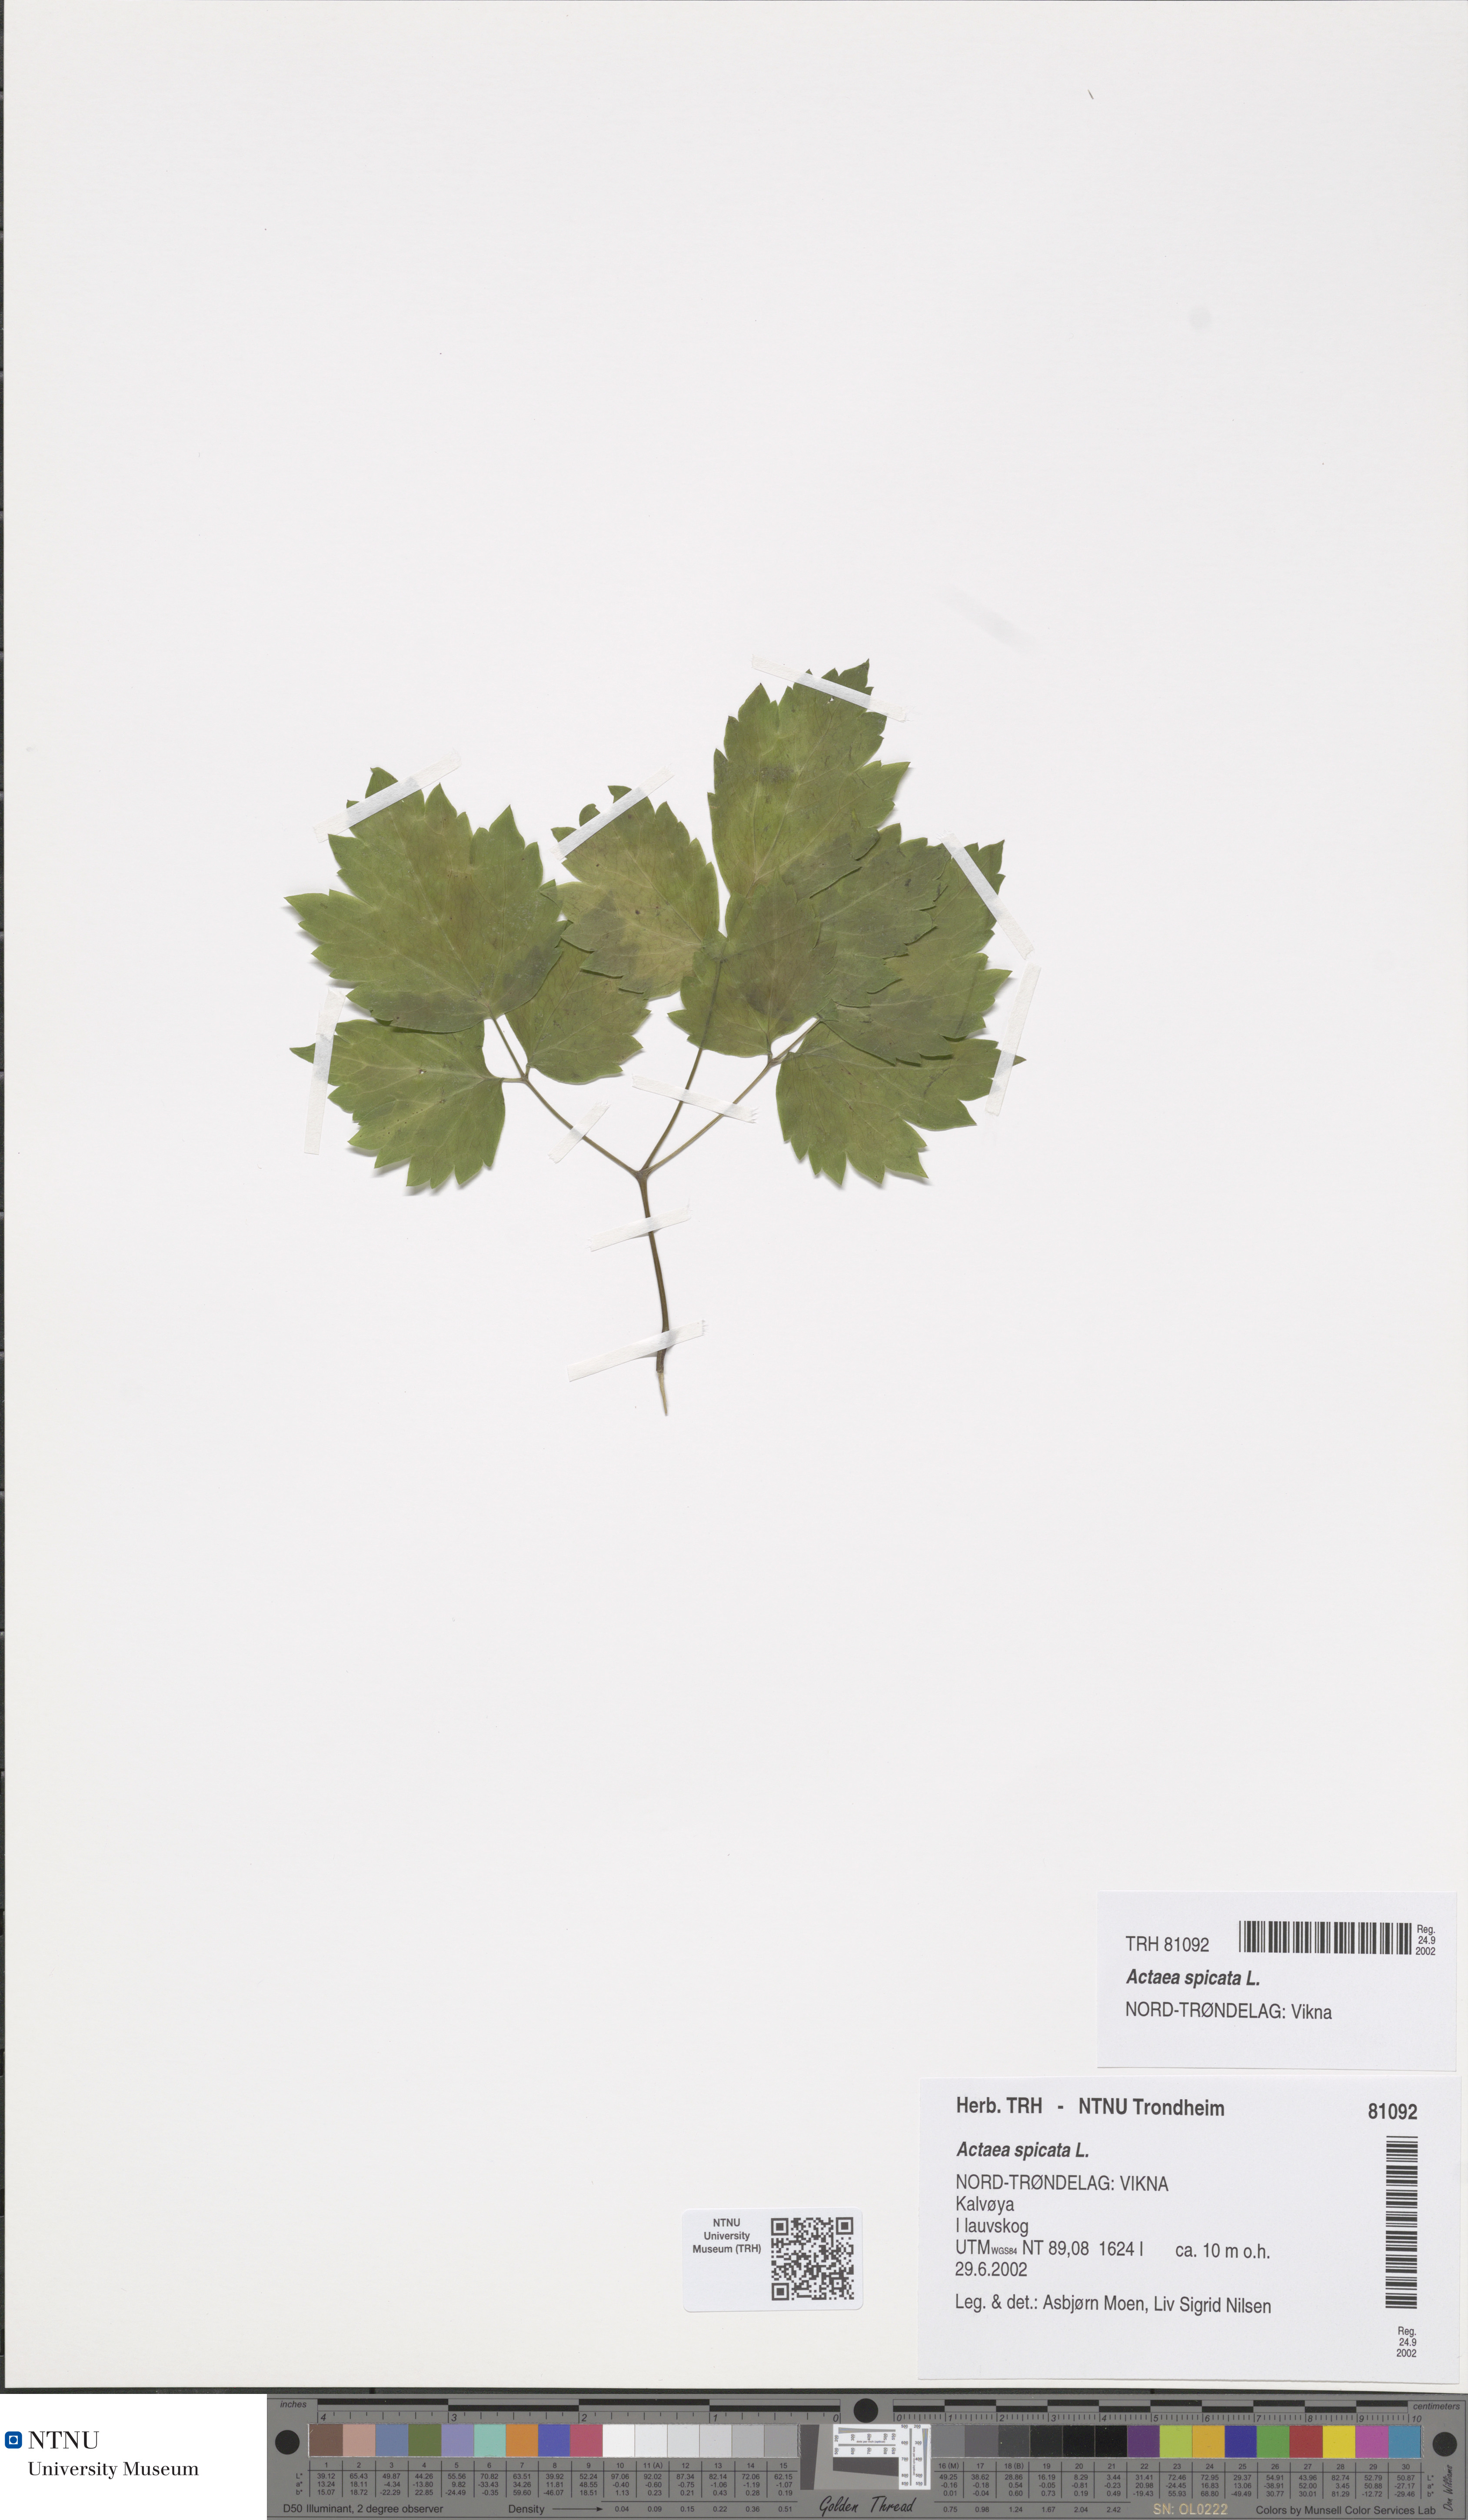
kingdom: Plantae
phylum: Tracheophyta
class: Magnoliopsida
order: Ranunculales
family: Ranunculaceae
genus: Actaea
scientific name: Actaea spicata
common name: Baneberry
